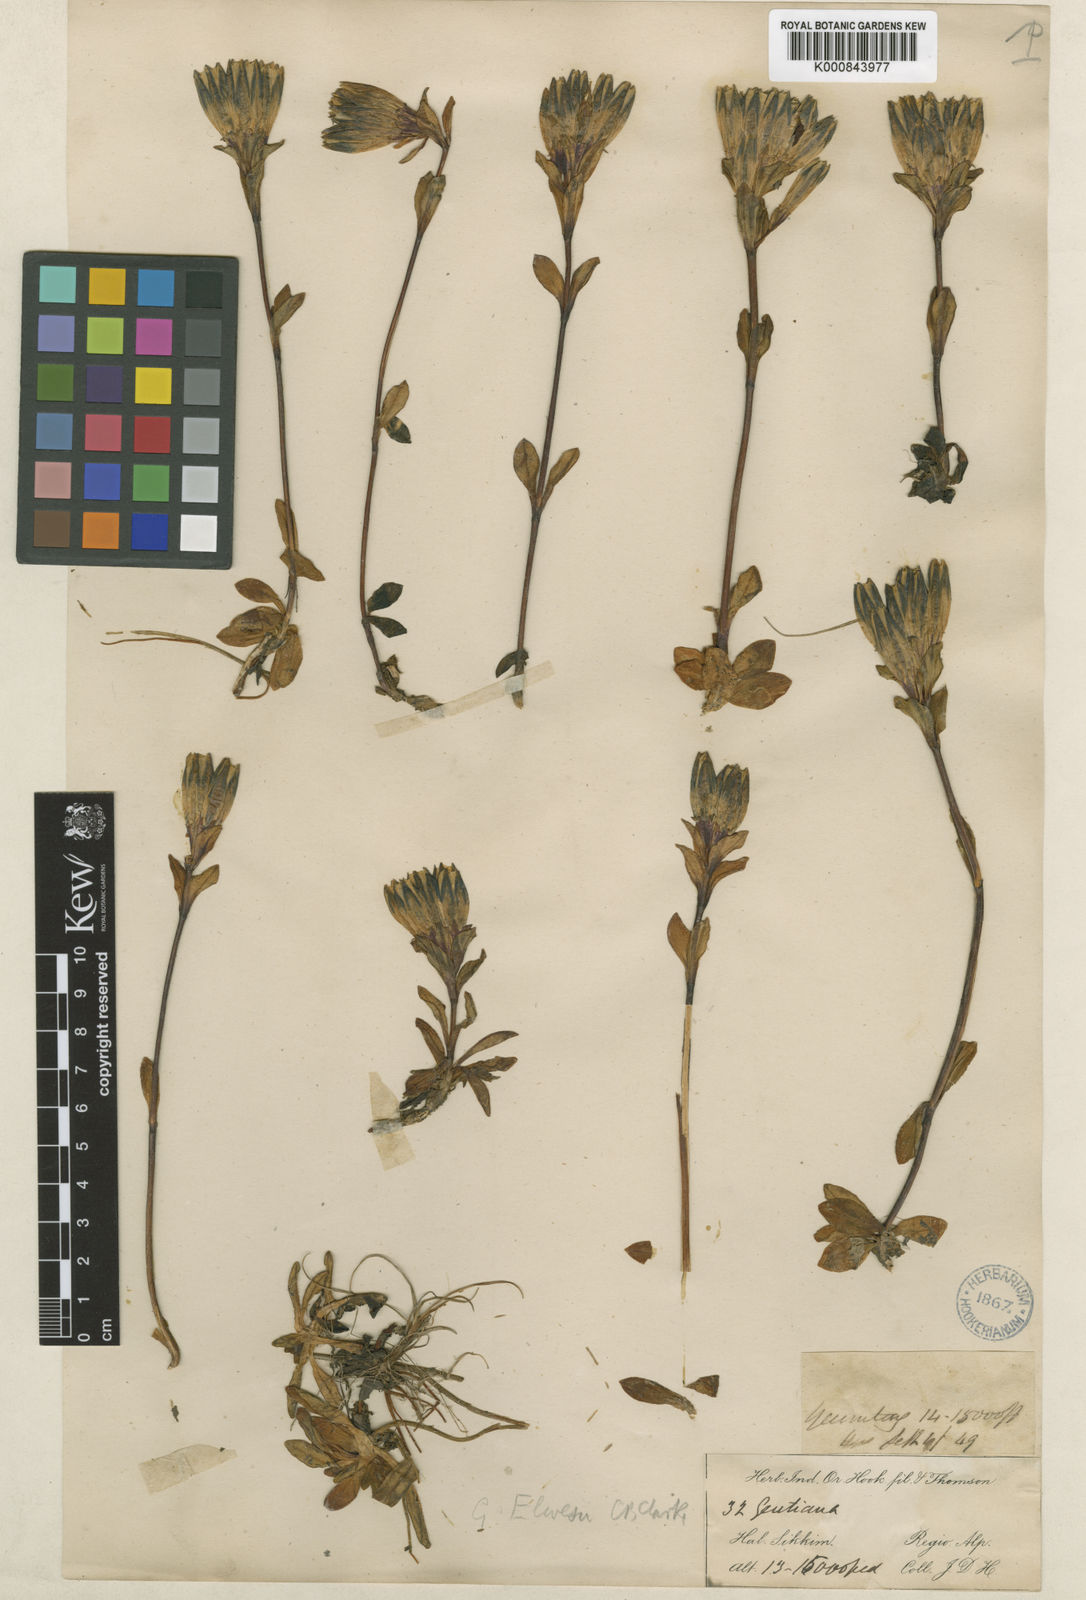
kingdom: Plantae
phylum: Tracheophyta
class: Magnoliopsida
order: Gentianales
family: Gentianaceae
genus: Gentiana
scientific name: Gentiana elwesii
